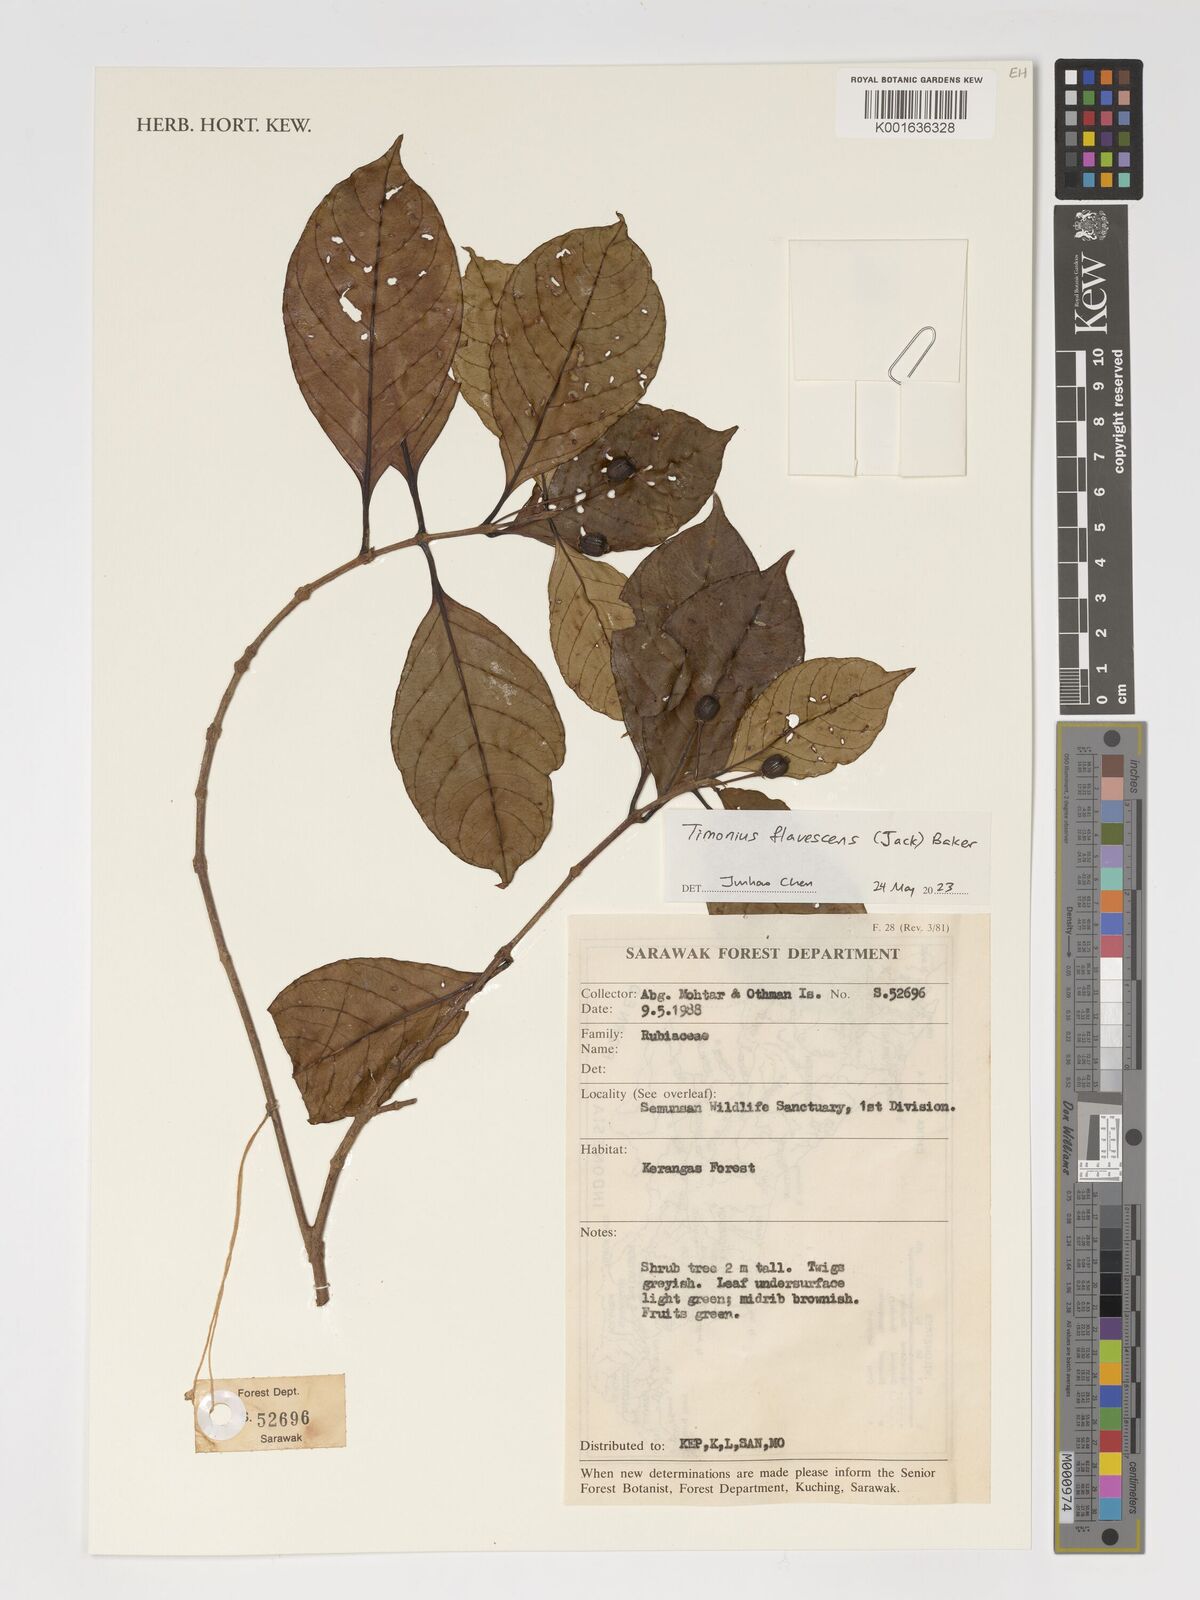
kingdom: Plantae
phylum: Tracheophyta
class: Magnoliopsida
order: Gentianales
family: Rubiaceae
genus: Timonius
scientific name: Timonius flavescens
